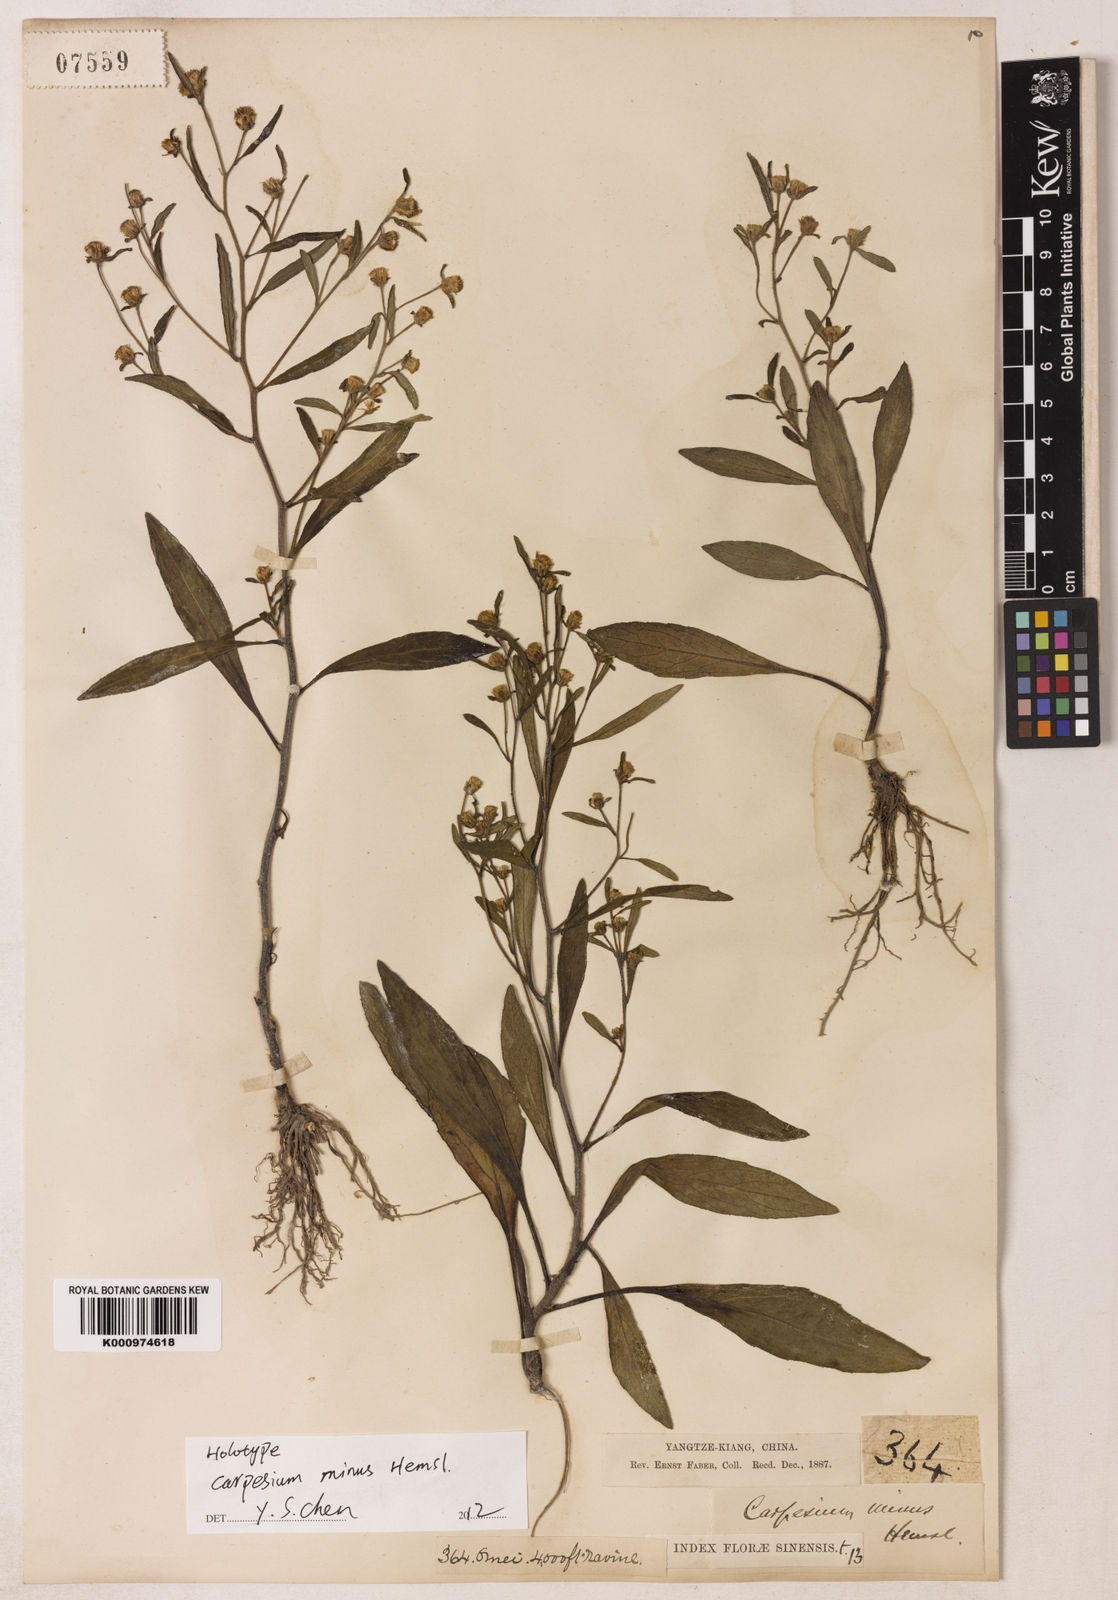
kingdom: Plantae
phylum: Tracheophyta
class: Magnoliopsida
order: Asterales
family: Asteraceae
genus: Carpesium
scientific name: Carpesium minus
